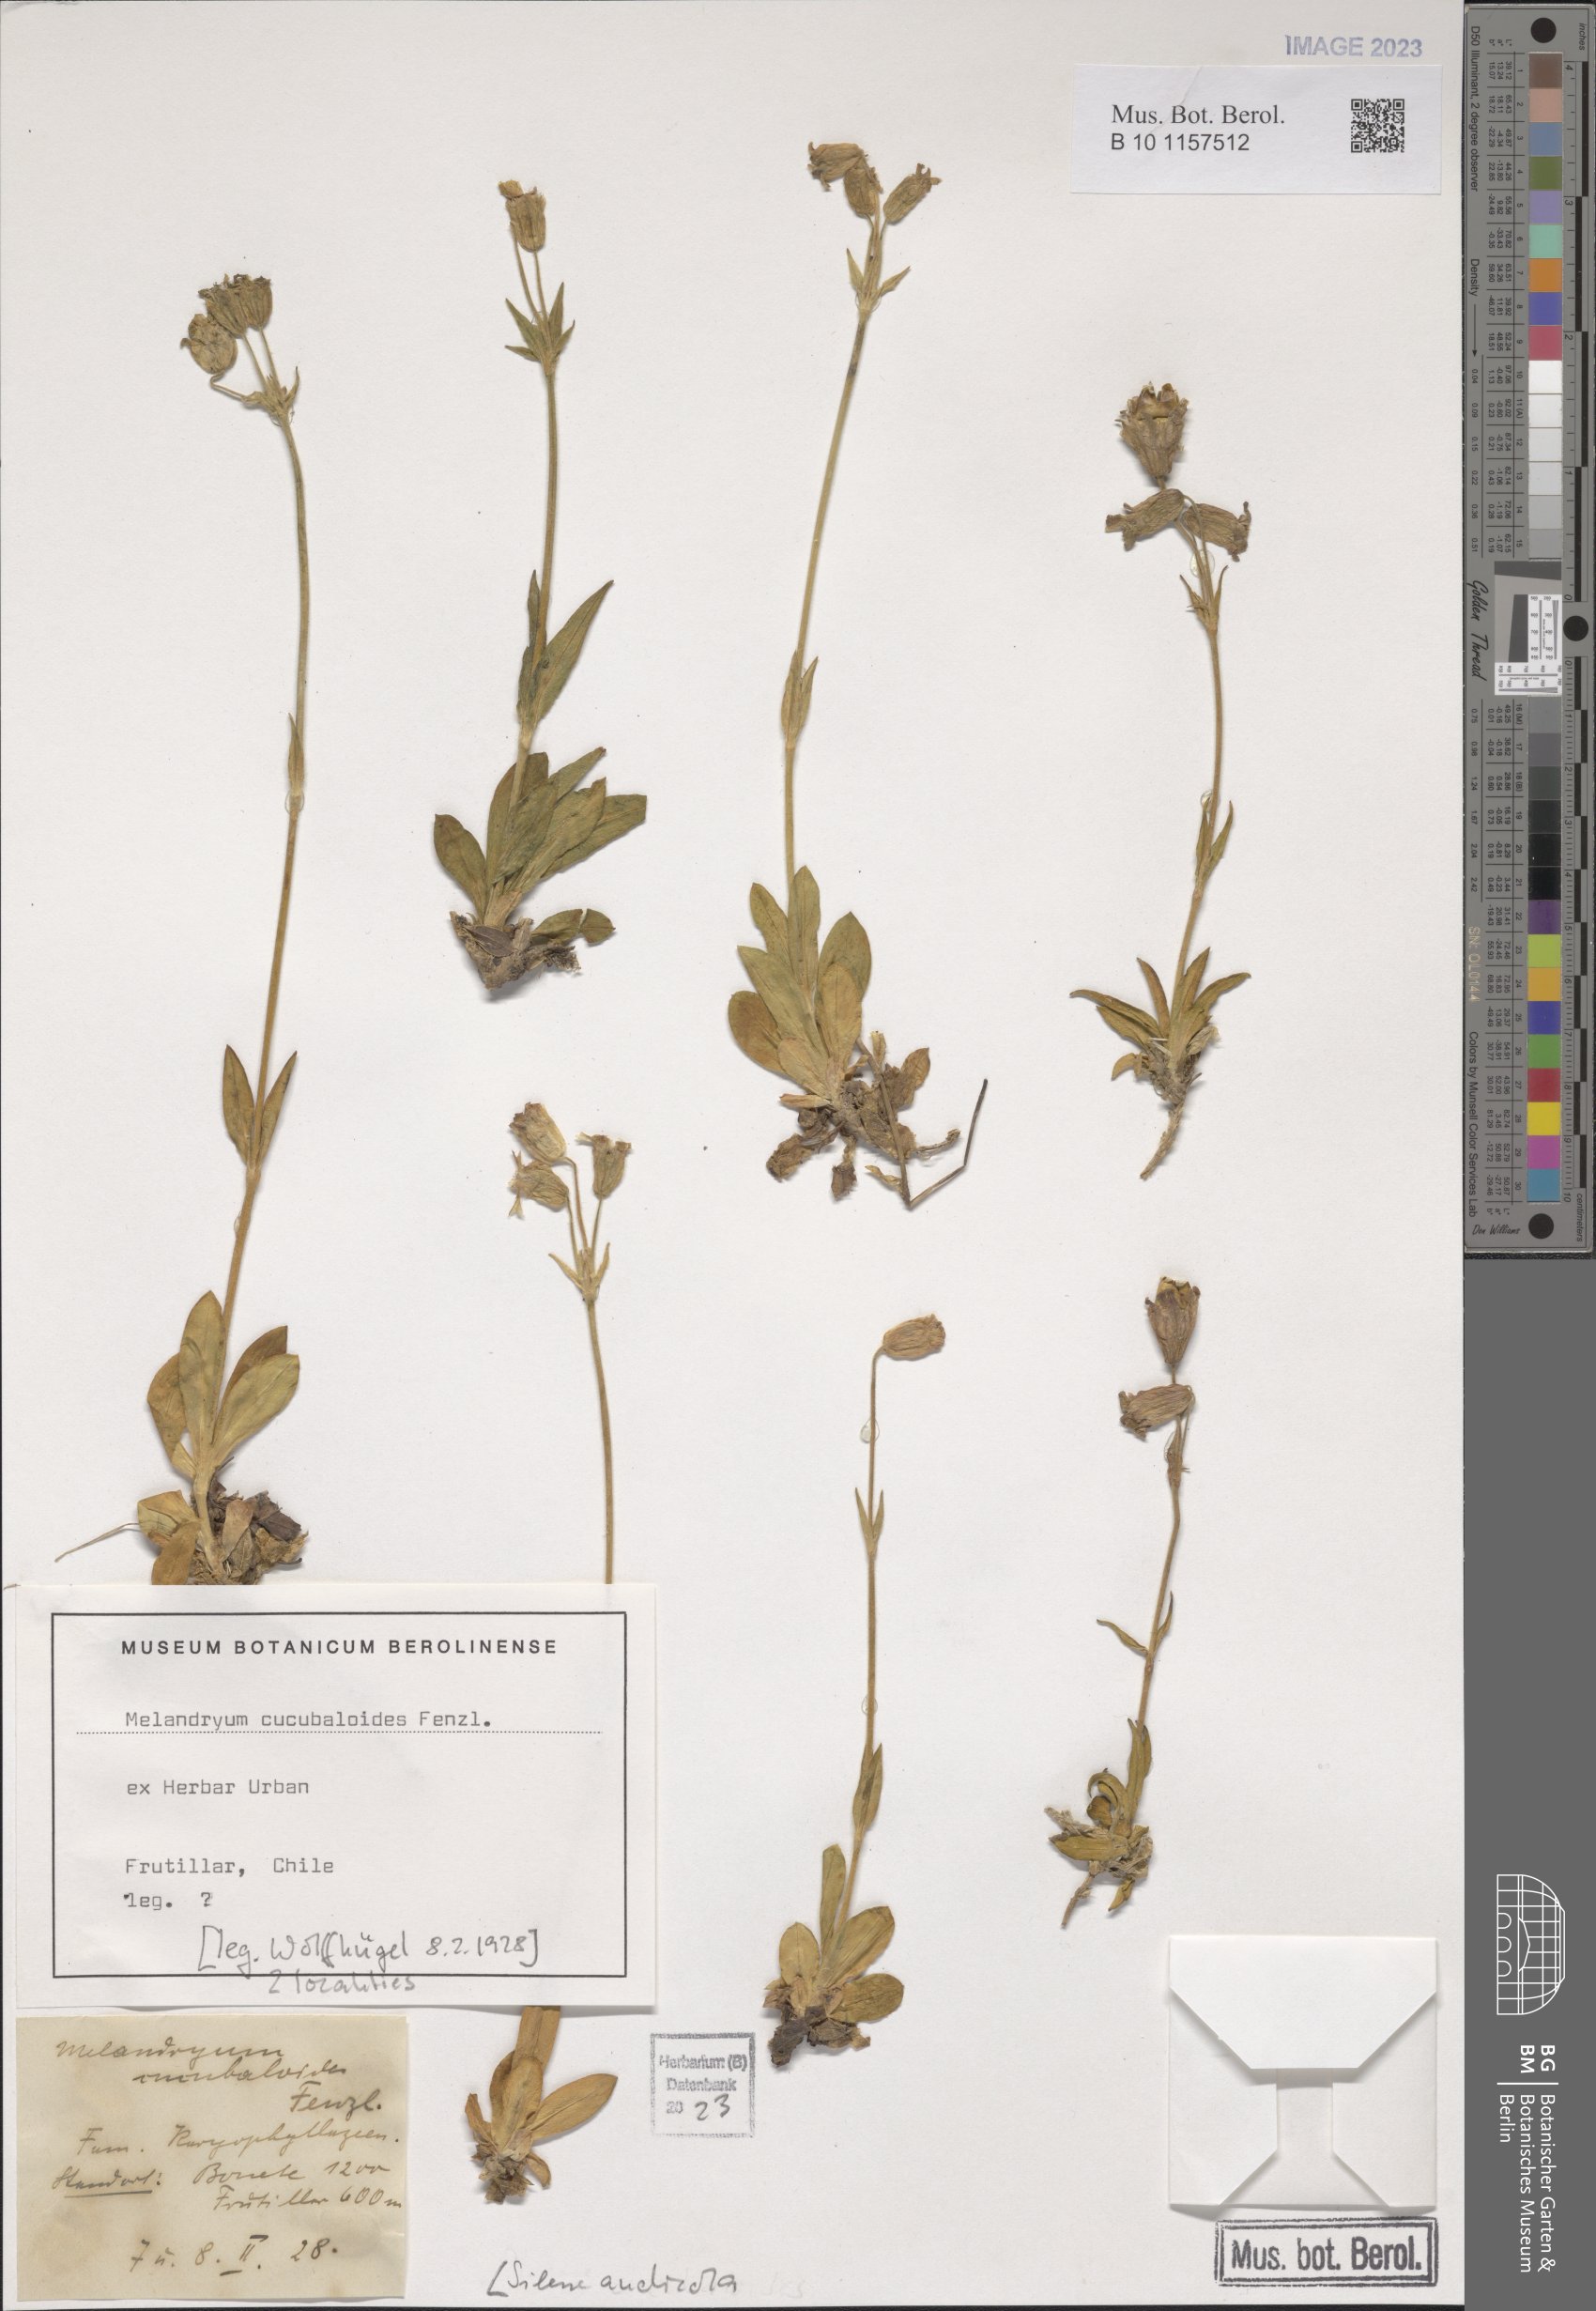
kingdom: Plantae
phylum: Tracheophyta
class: Magnoliopsida
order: Caryophyllales
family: Caryophyllaceae
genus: Silene
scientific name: Silene andicola
